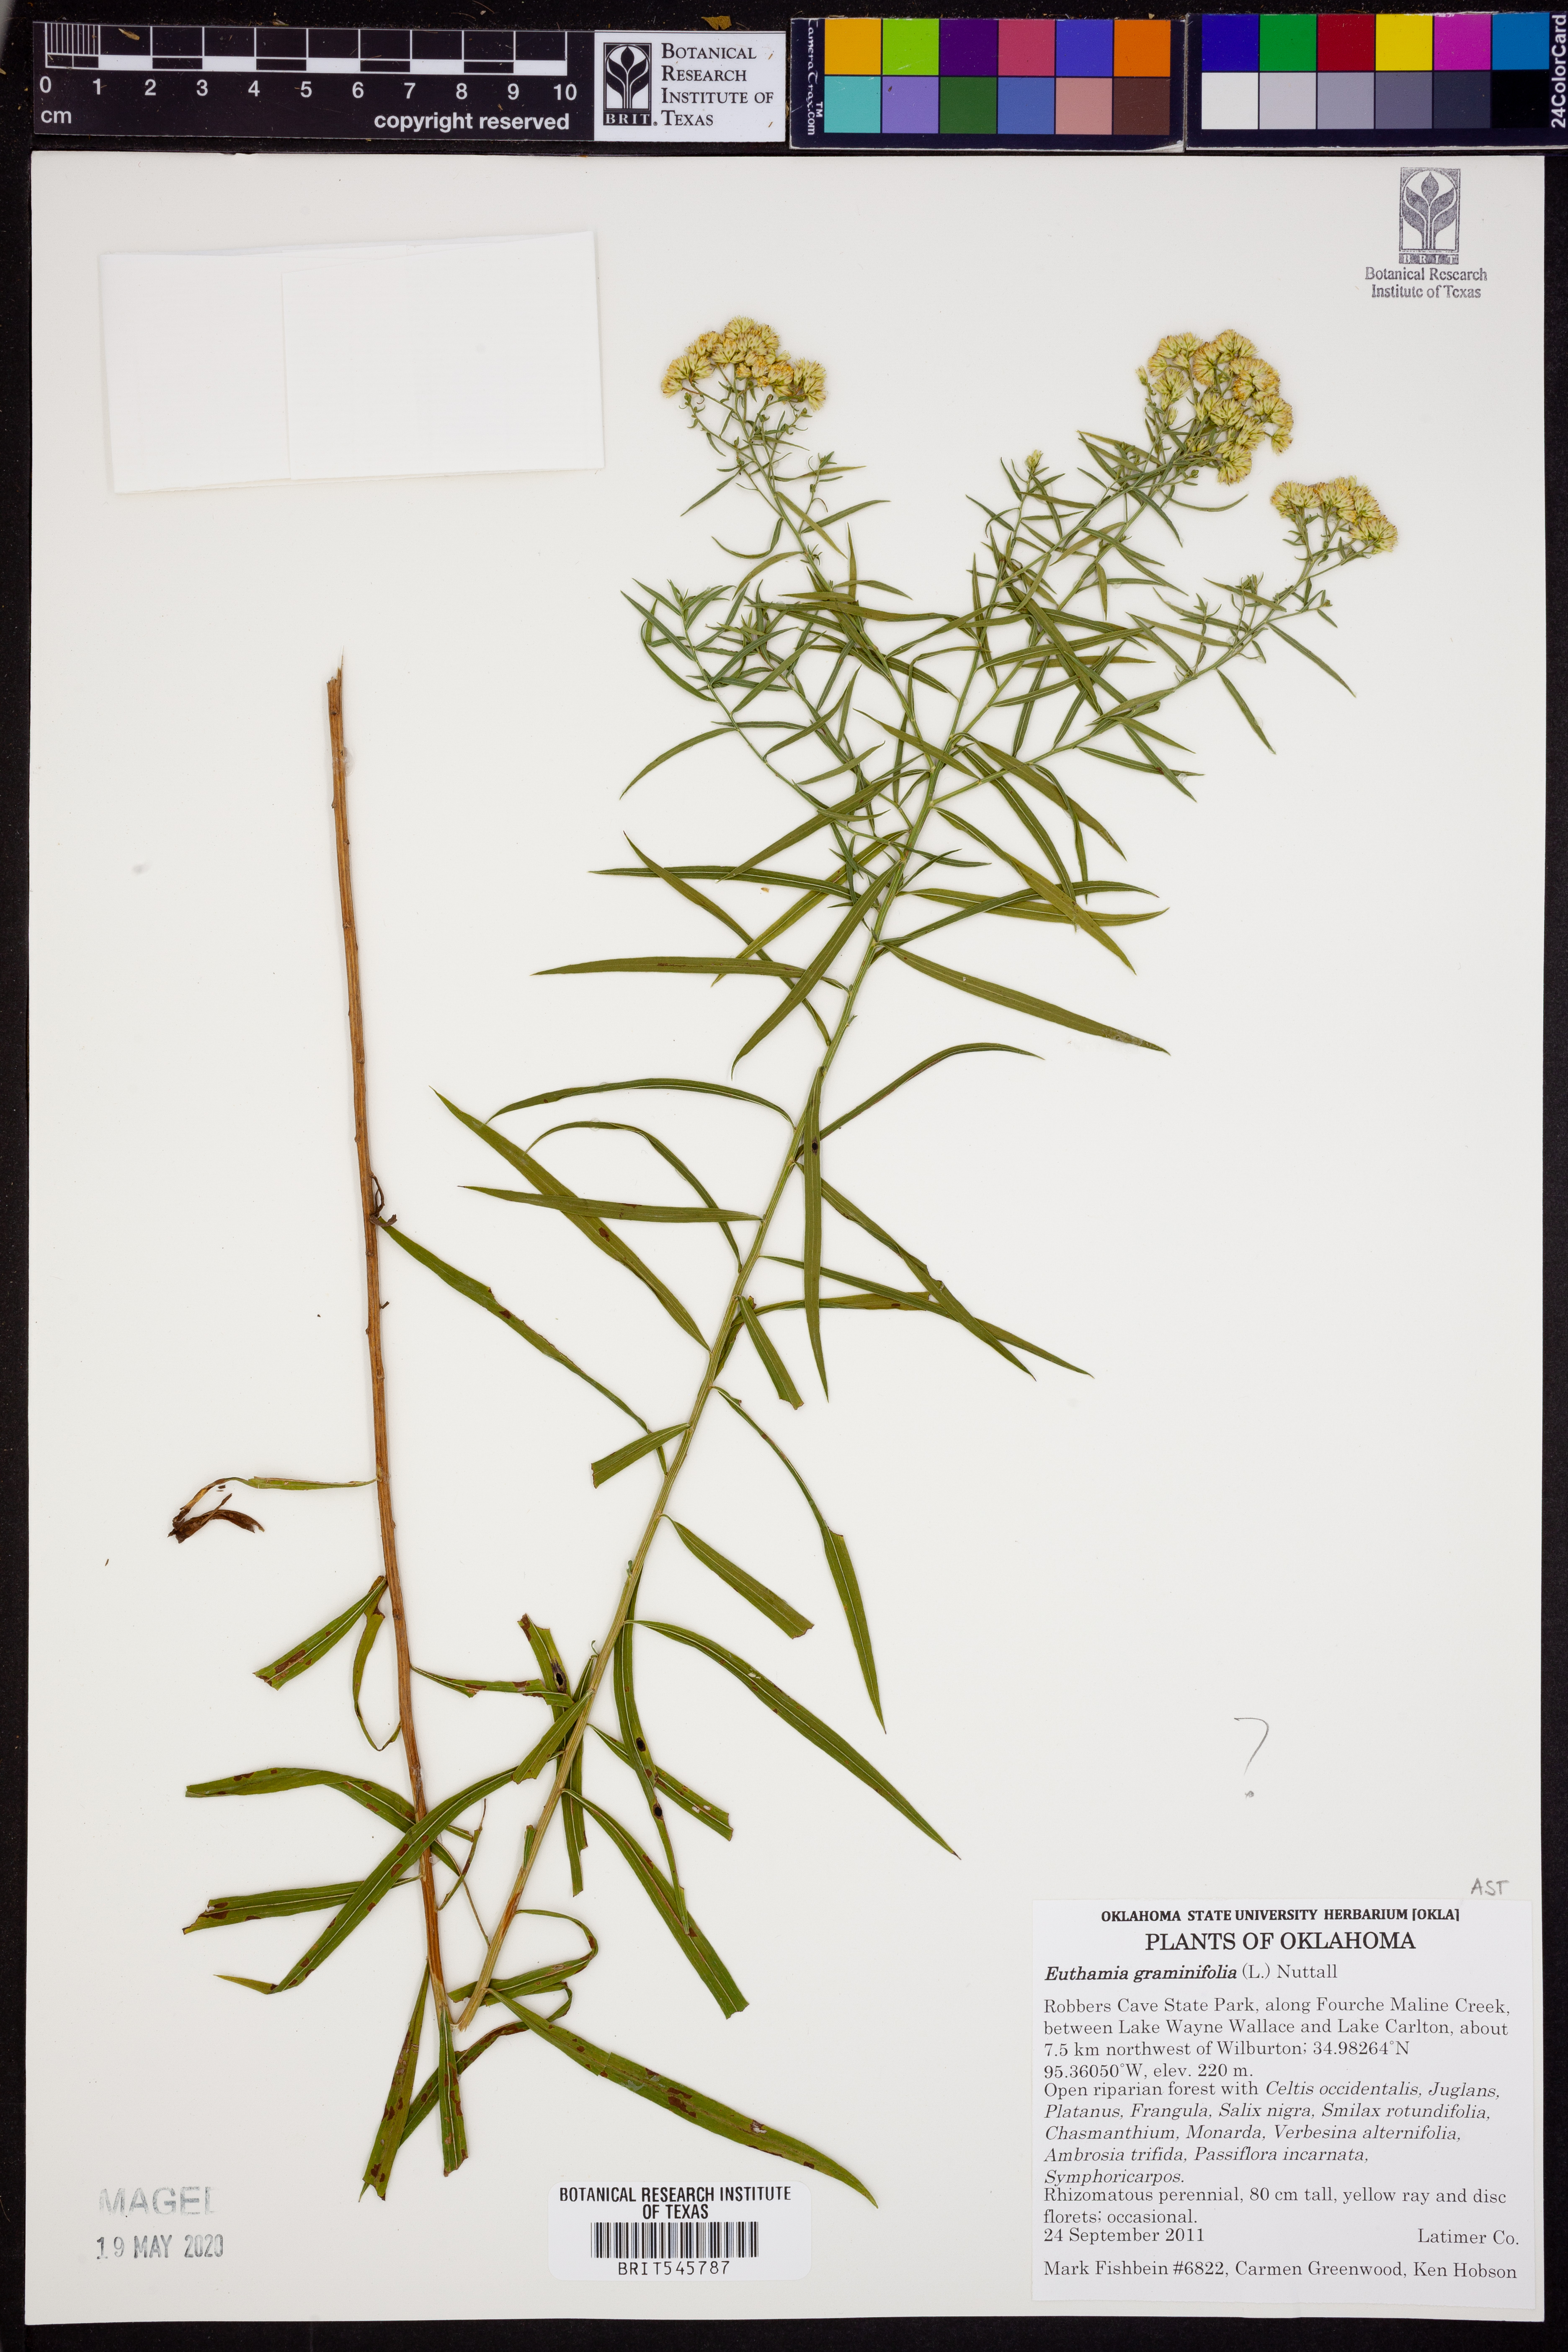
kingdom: Plantae
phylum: Tracheophyta
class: Magnoliopsida
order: Asterales
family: Asteraceae
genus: Euthamia
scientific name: Euthamia graminifolia
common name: Common goldentop
